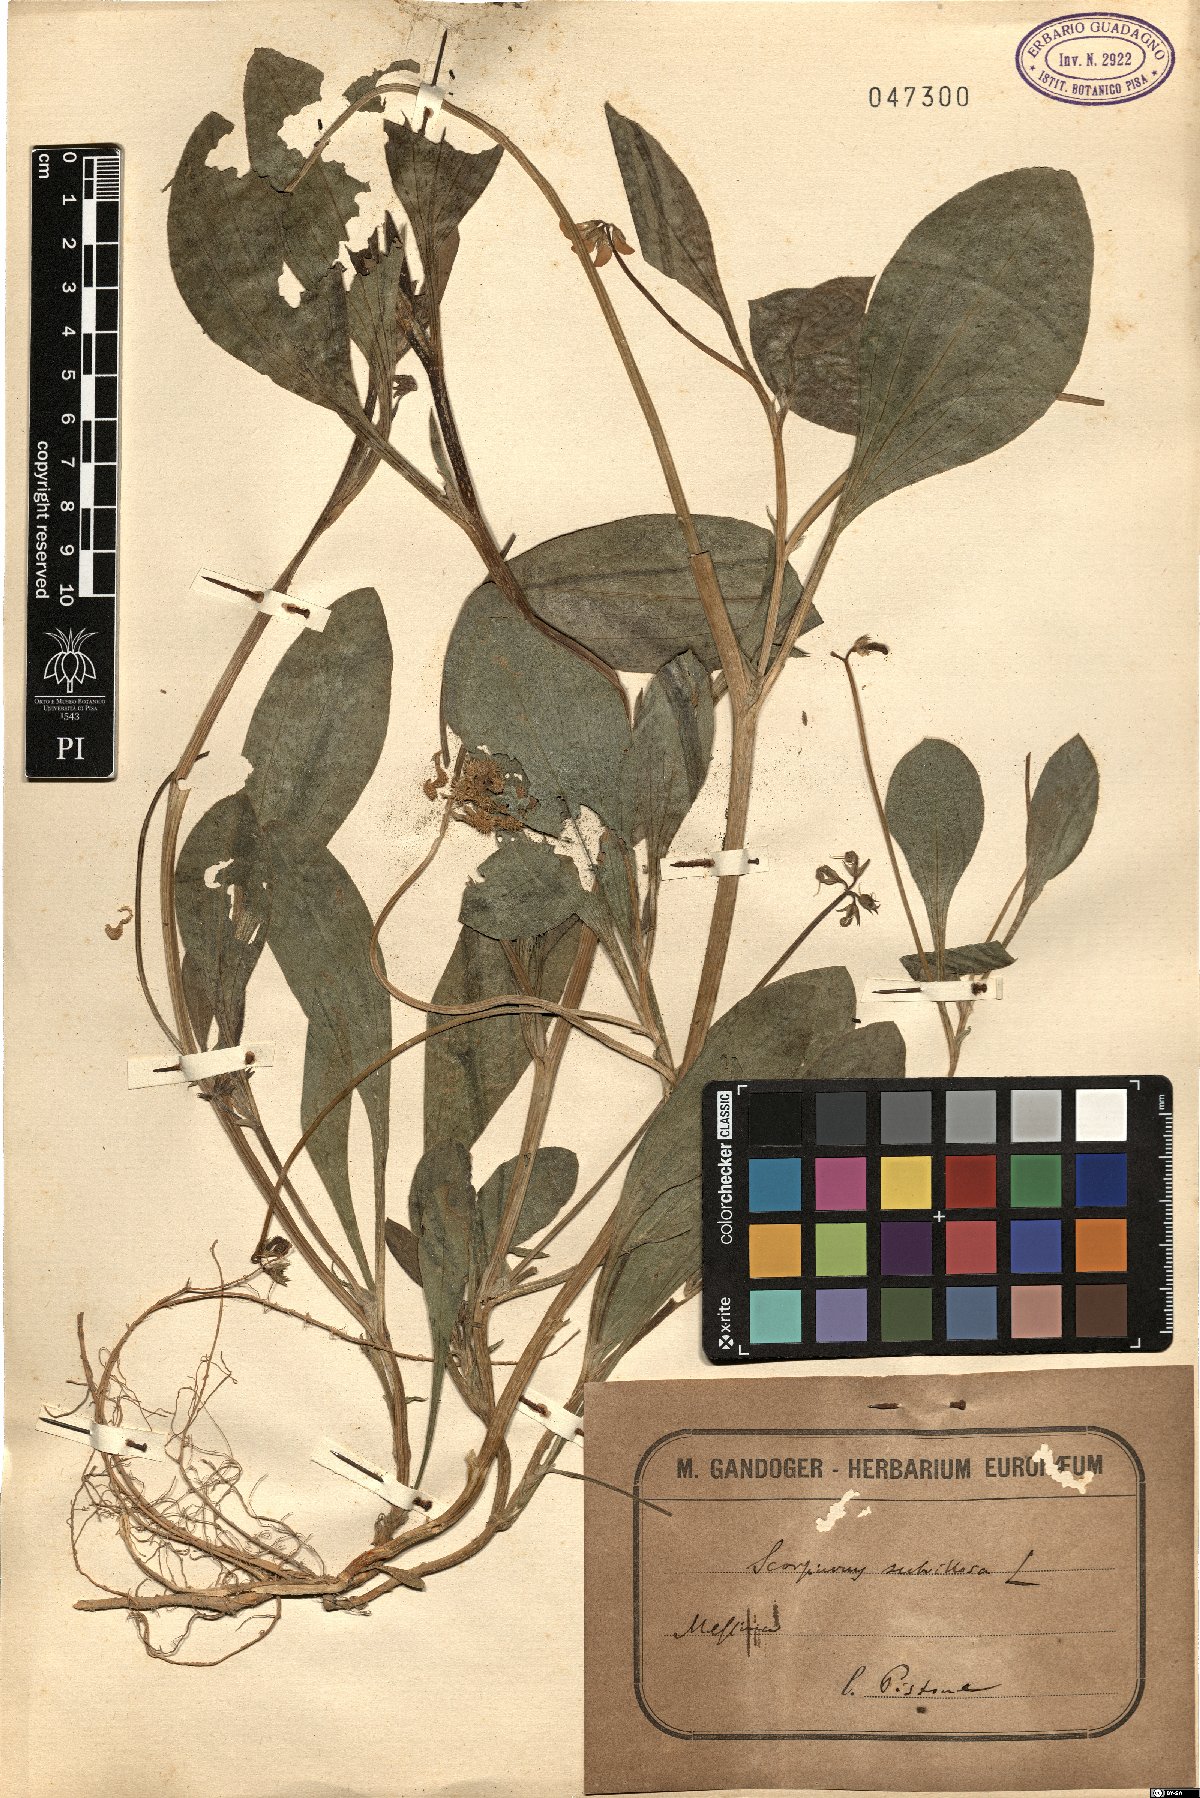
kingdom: Plantae
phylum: Tracheophyta
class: Magnoliopsida
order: Fabales
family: Fabaceae
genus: Scorpiurus
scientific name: Scorpiurus muricatus
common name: Caterpillar-plant
